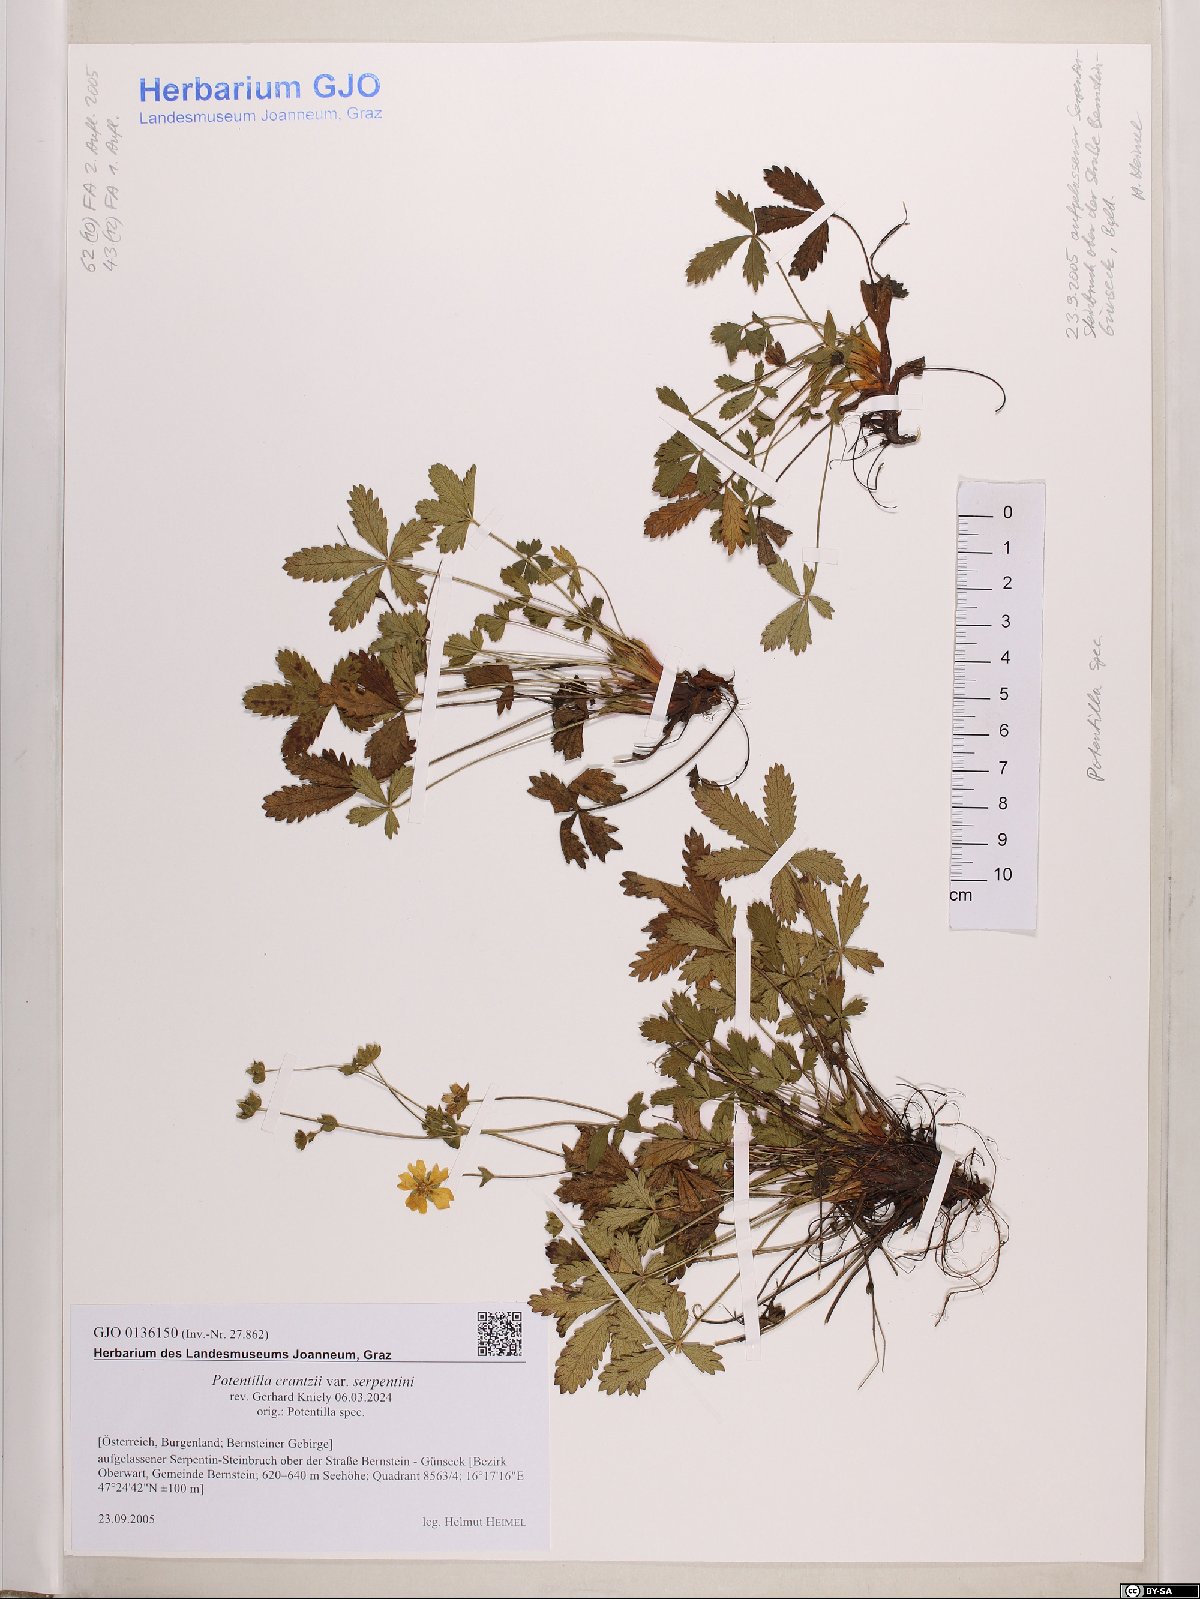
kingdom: Plantae
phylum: Tracheophyta
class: Magnoliopsida
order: Rosales
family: Rosaceae
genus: Potentilla
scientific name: Potentilla crantzii
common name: Alpine cinquefoil
